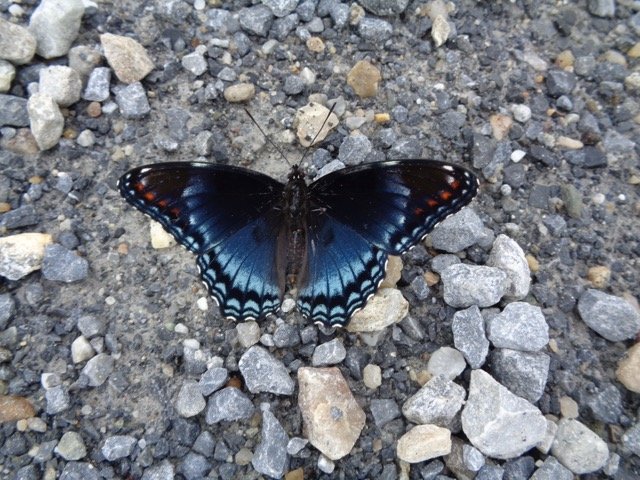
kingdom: Animalia
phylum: Arthropoda
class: Insecta
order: Lepidoptera
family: Nymphalidae
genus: Limenitis
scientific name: Limenitis
